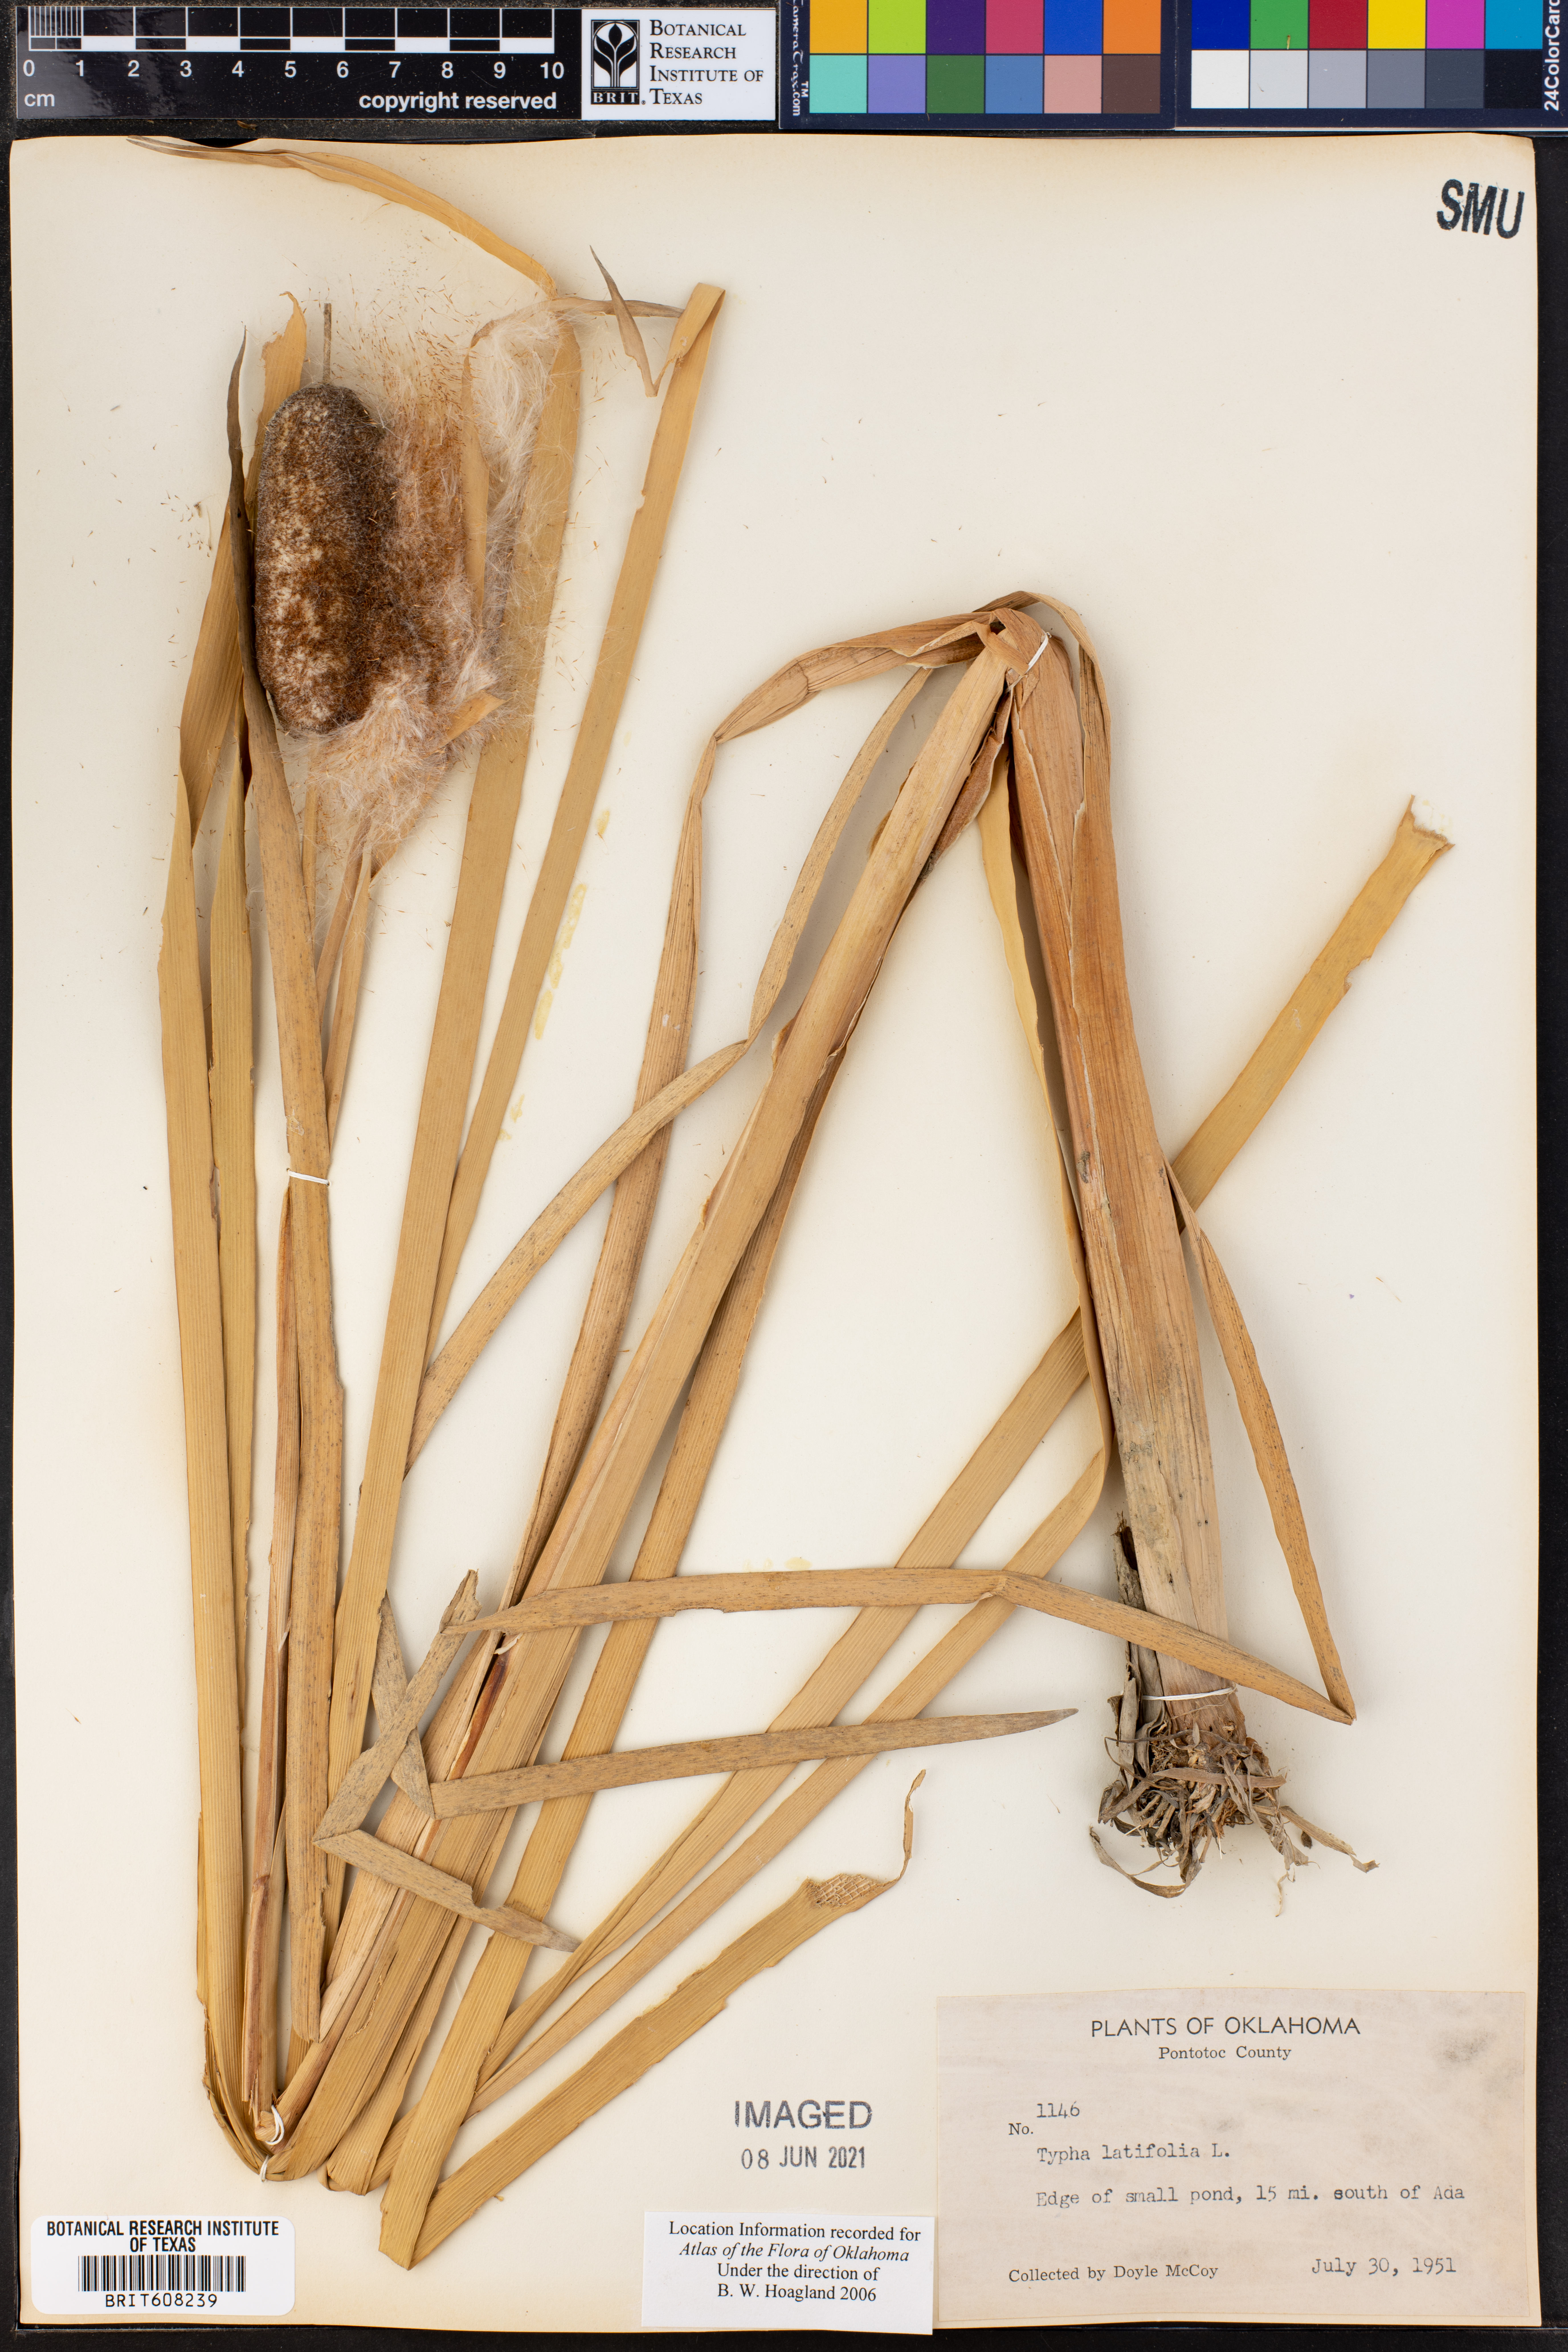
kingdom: Plantae
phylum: Tracheophyta
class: Liliopsida
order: Poales
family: Typhaceae
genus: Typha
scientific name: Typha latifolia
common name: Broadleaf cattail
